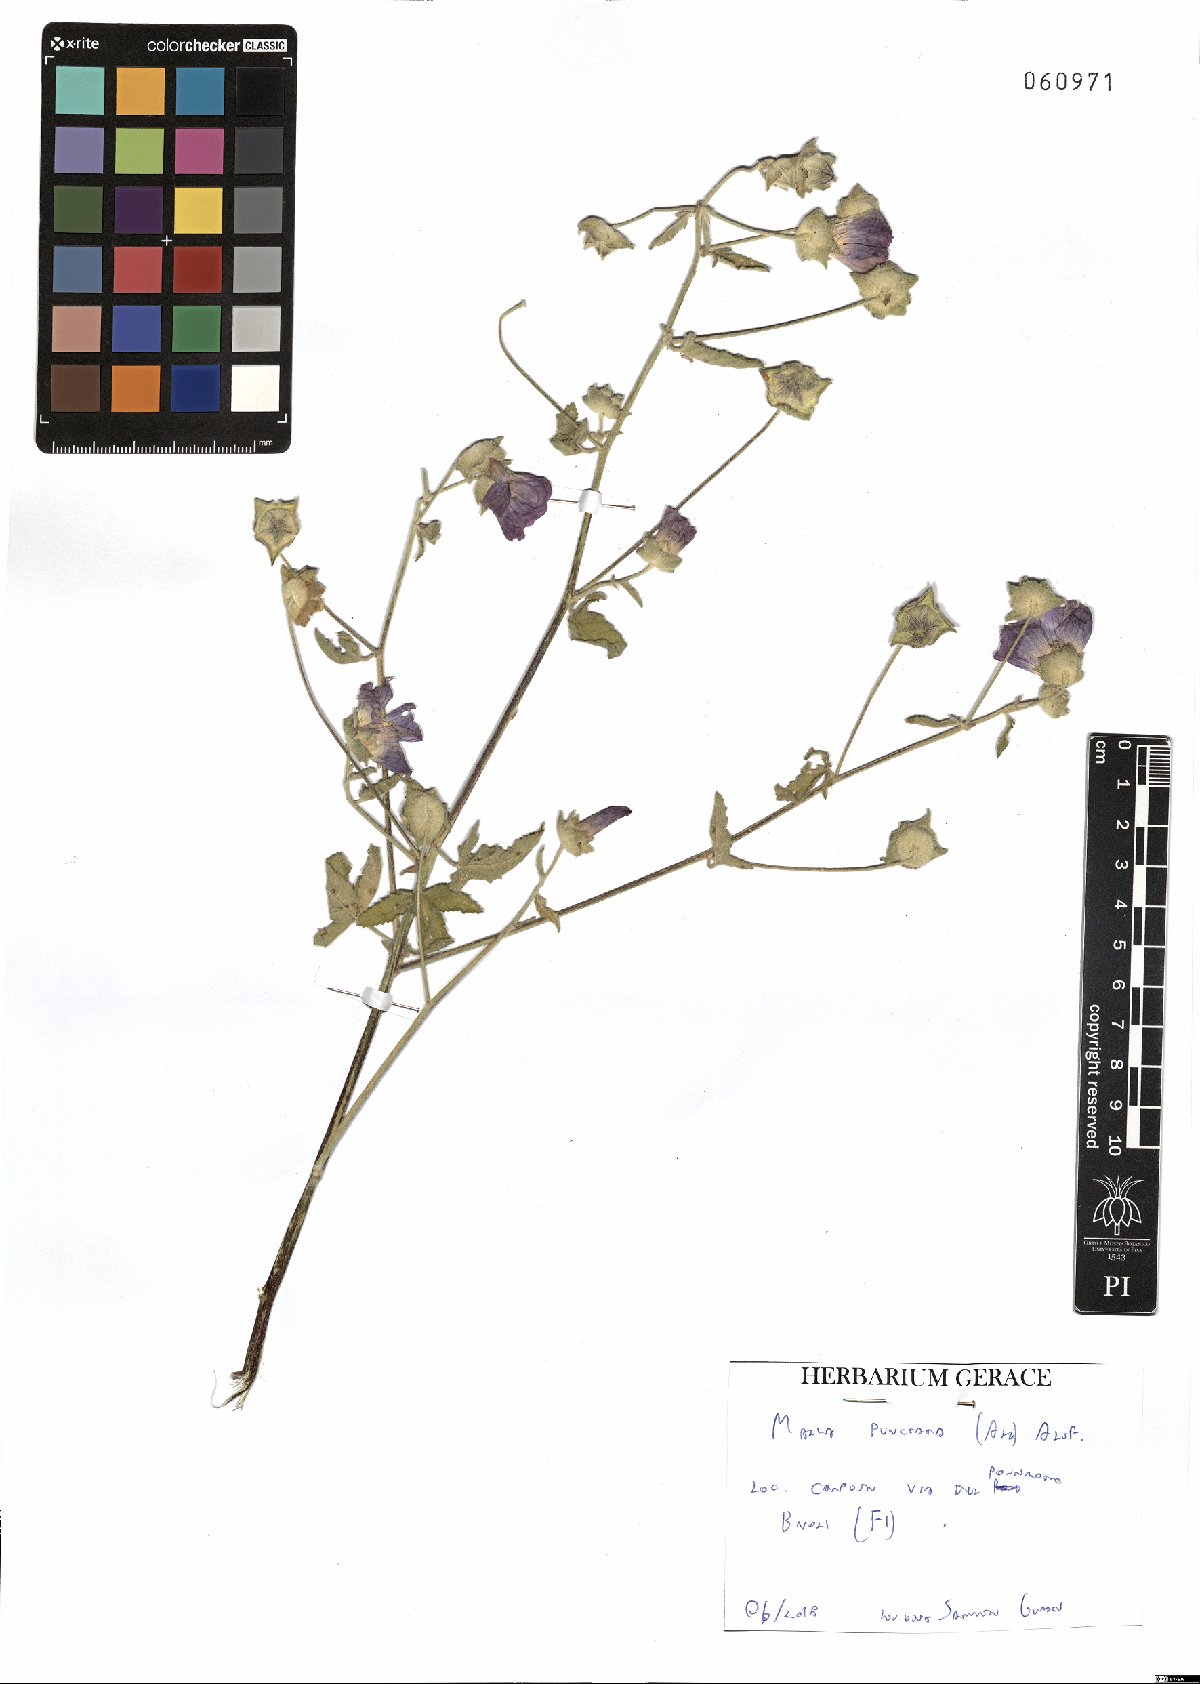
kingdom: Plantae
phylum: Tracheophyta
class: Magnoliopsida
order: Malvales
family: Malvaceae
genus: Malva
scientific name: Malva punctata
